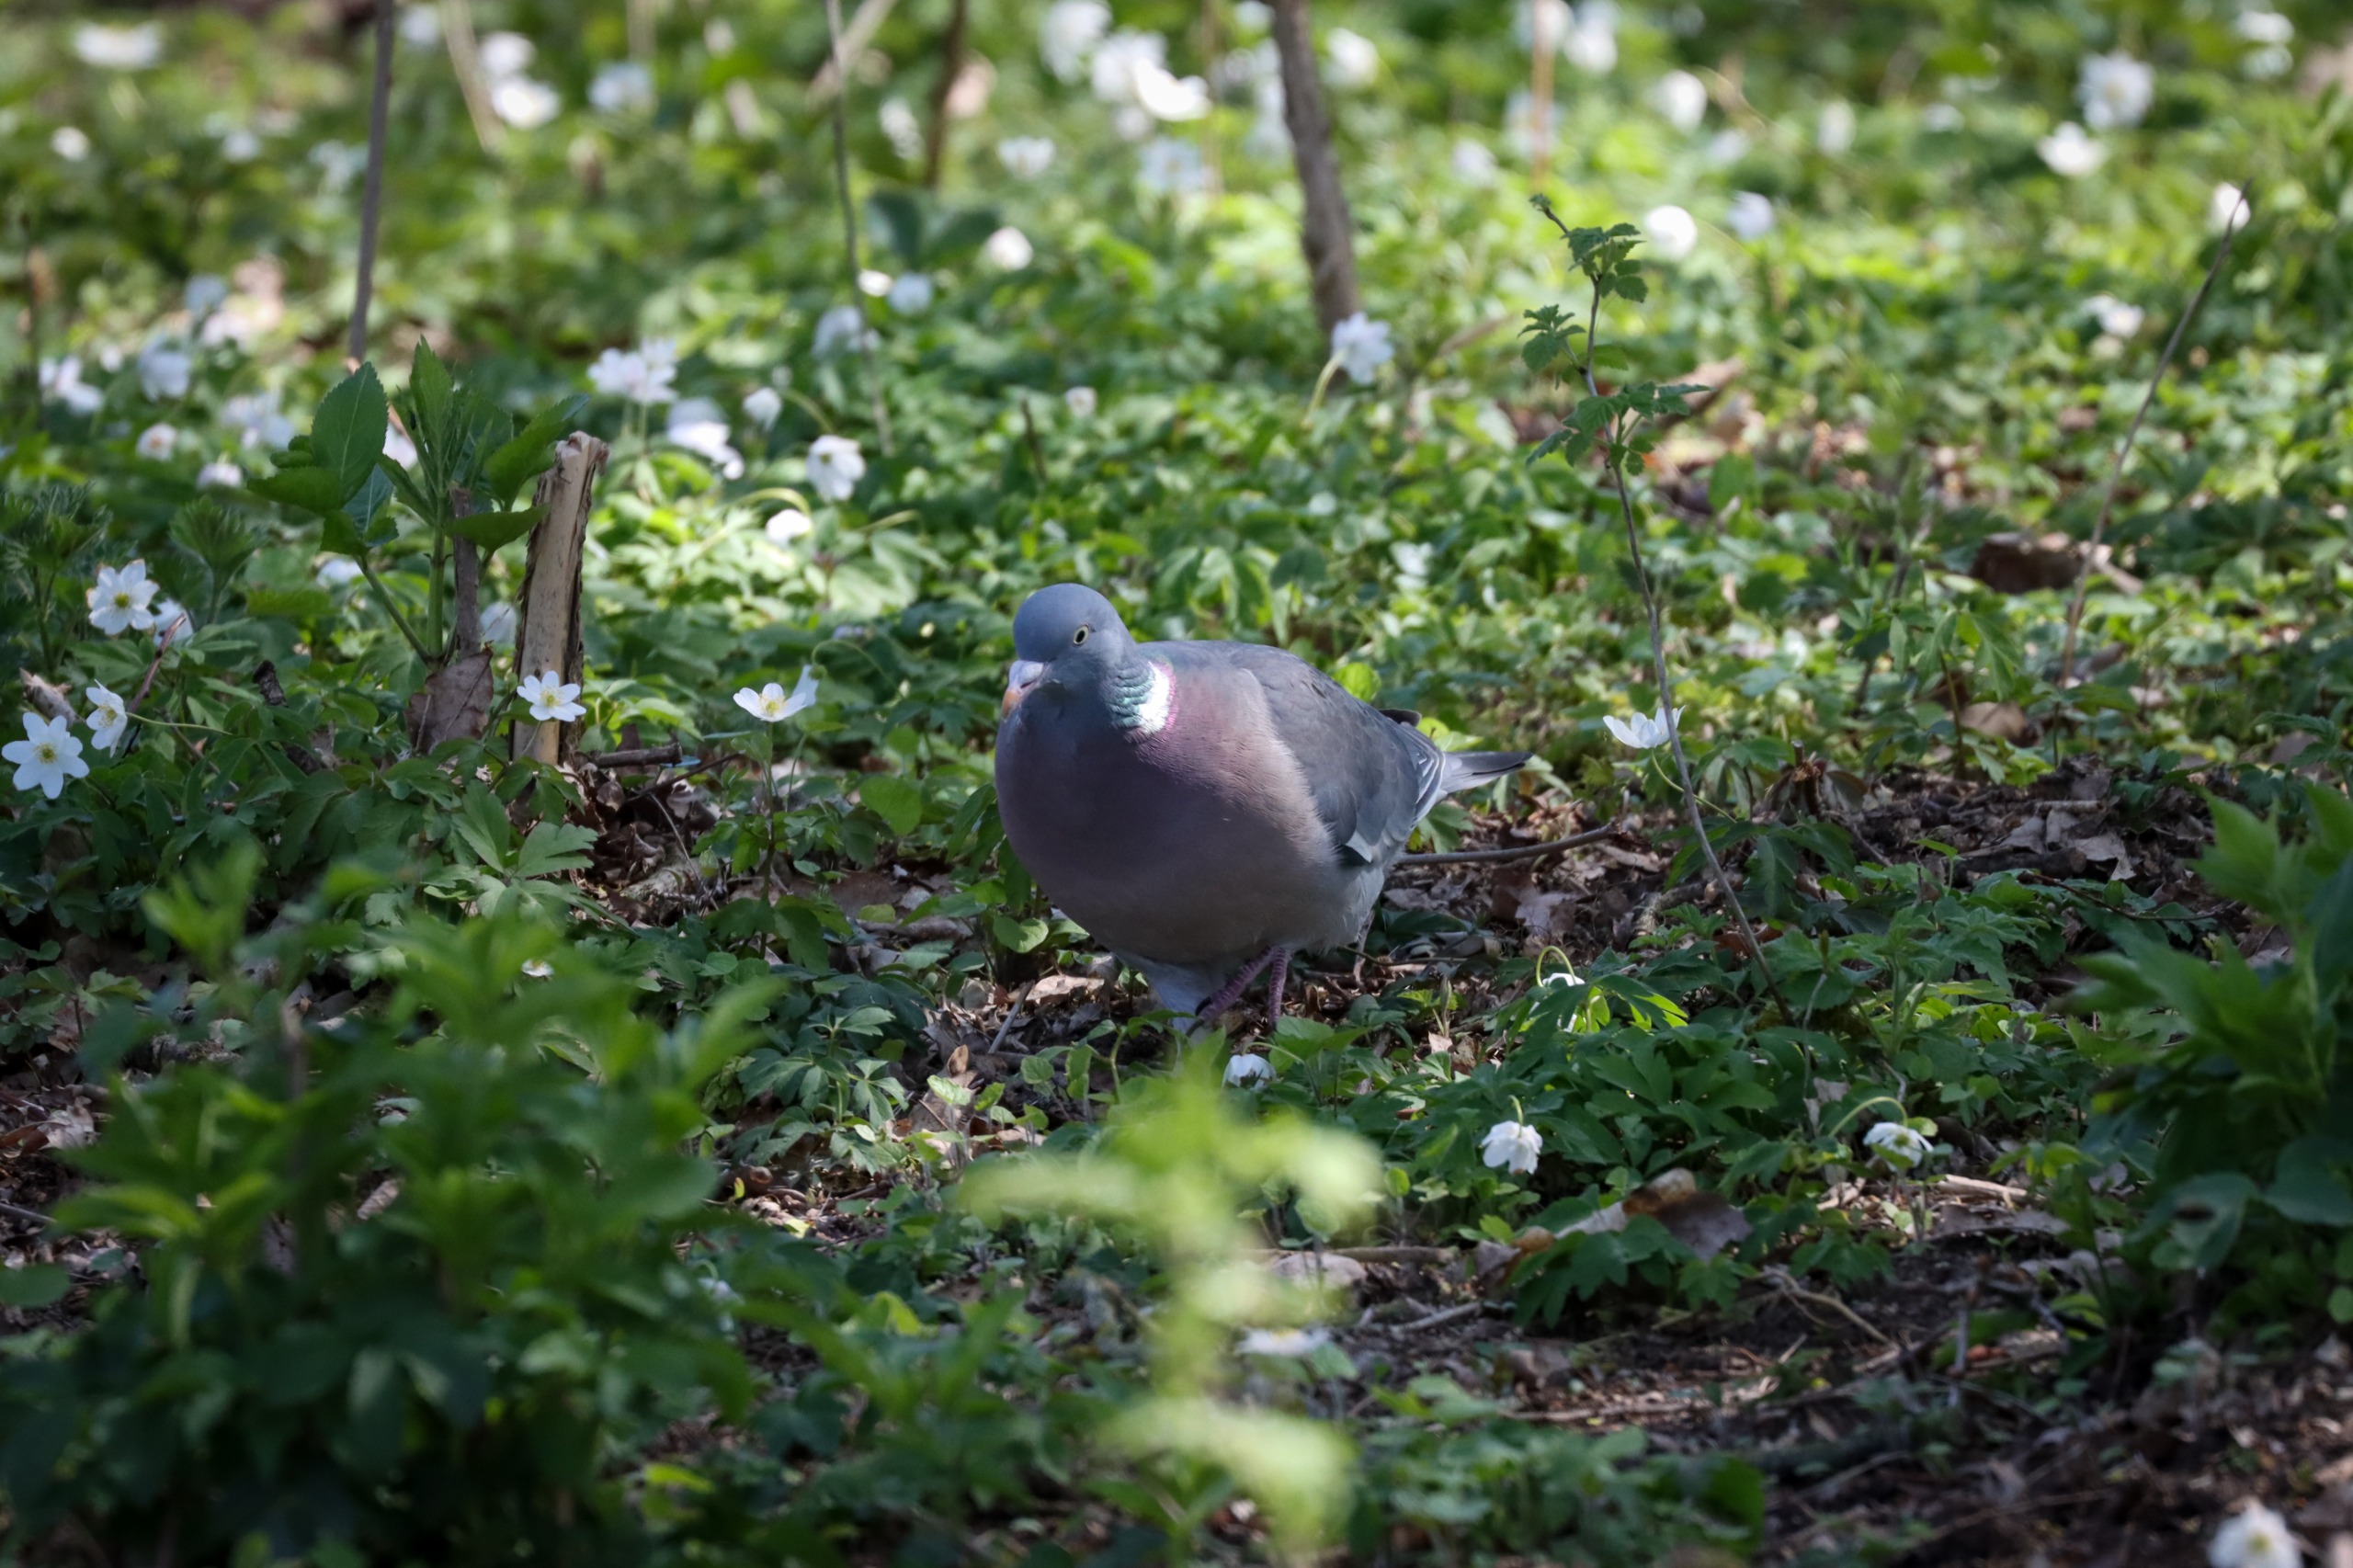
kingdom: Animalia
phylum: Chordata
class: Aves
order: Columbiformes
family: Columbidae
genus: Columba
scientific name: Columba palumbus
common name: Ringdue
